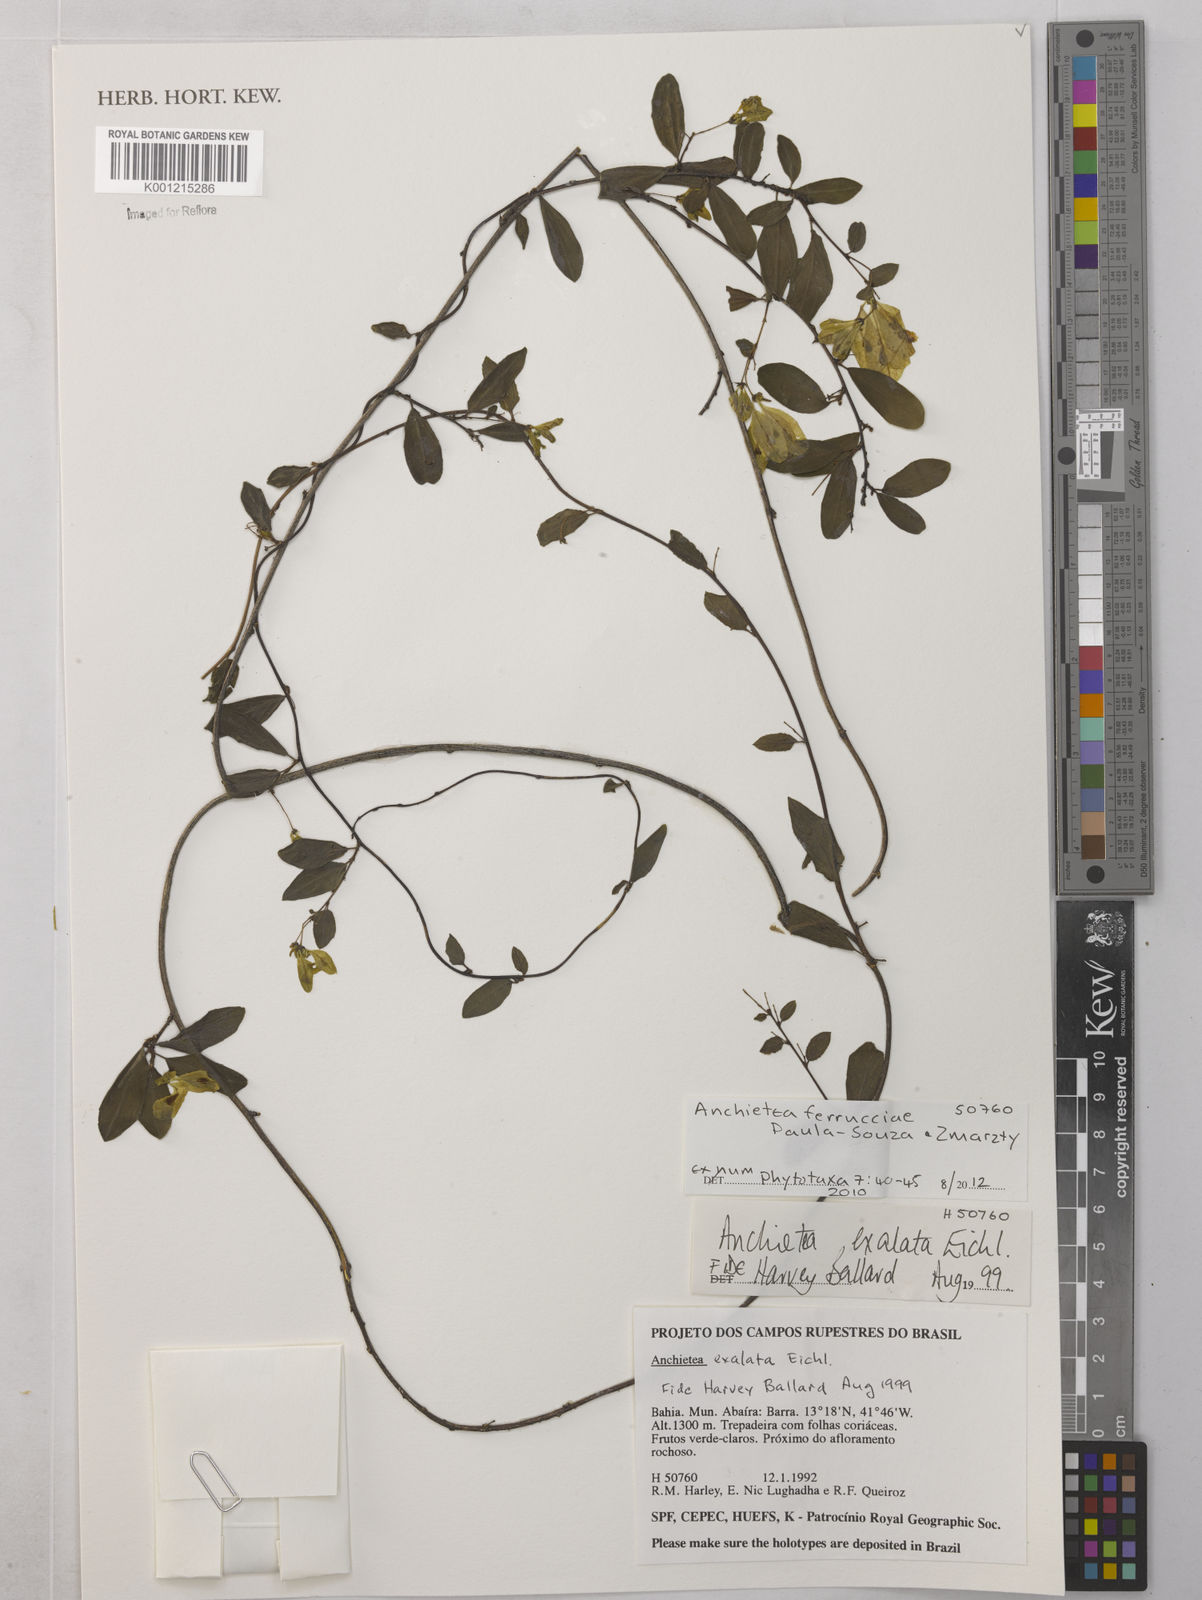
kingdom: Plantae
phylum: Tracheophyta
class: Magnoliopsida
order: Malpighiales
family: Violaceae
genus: Anchietea
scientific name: Anchietea ferrucciae
